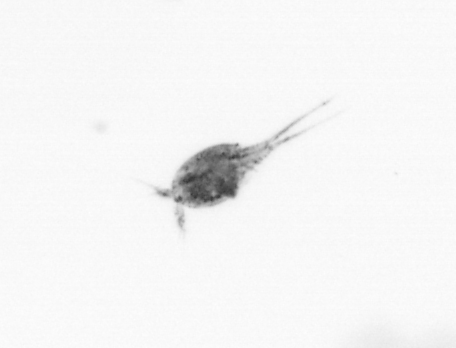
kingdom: Animalia
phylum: Arthropoda
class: Copepoda
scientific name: Copepoda
